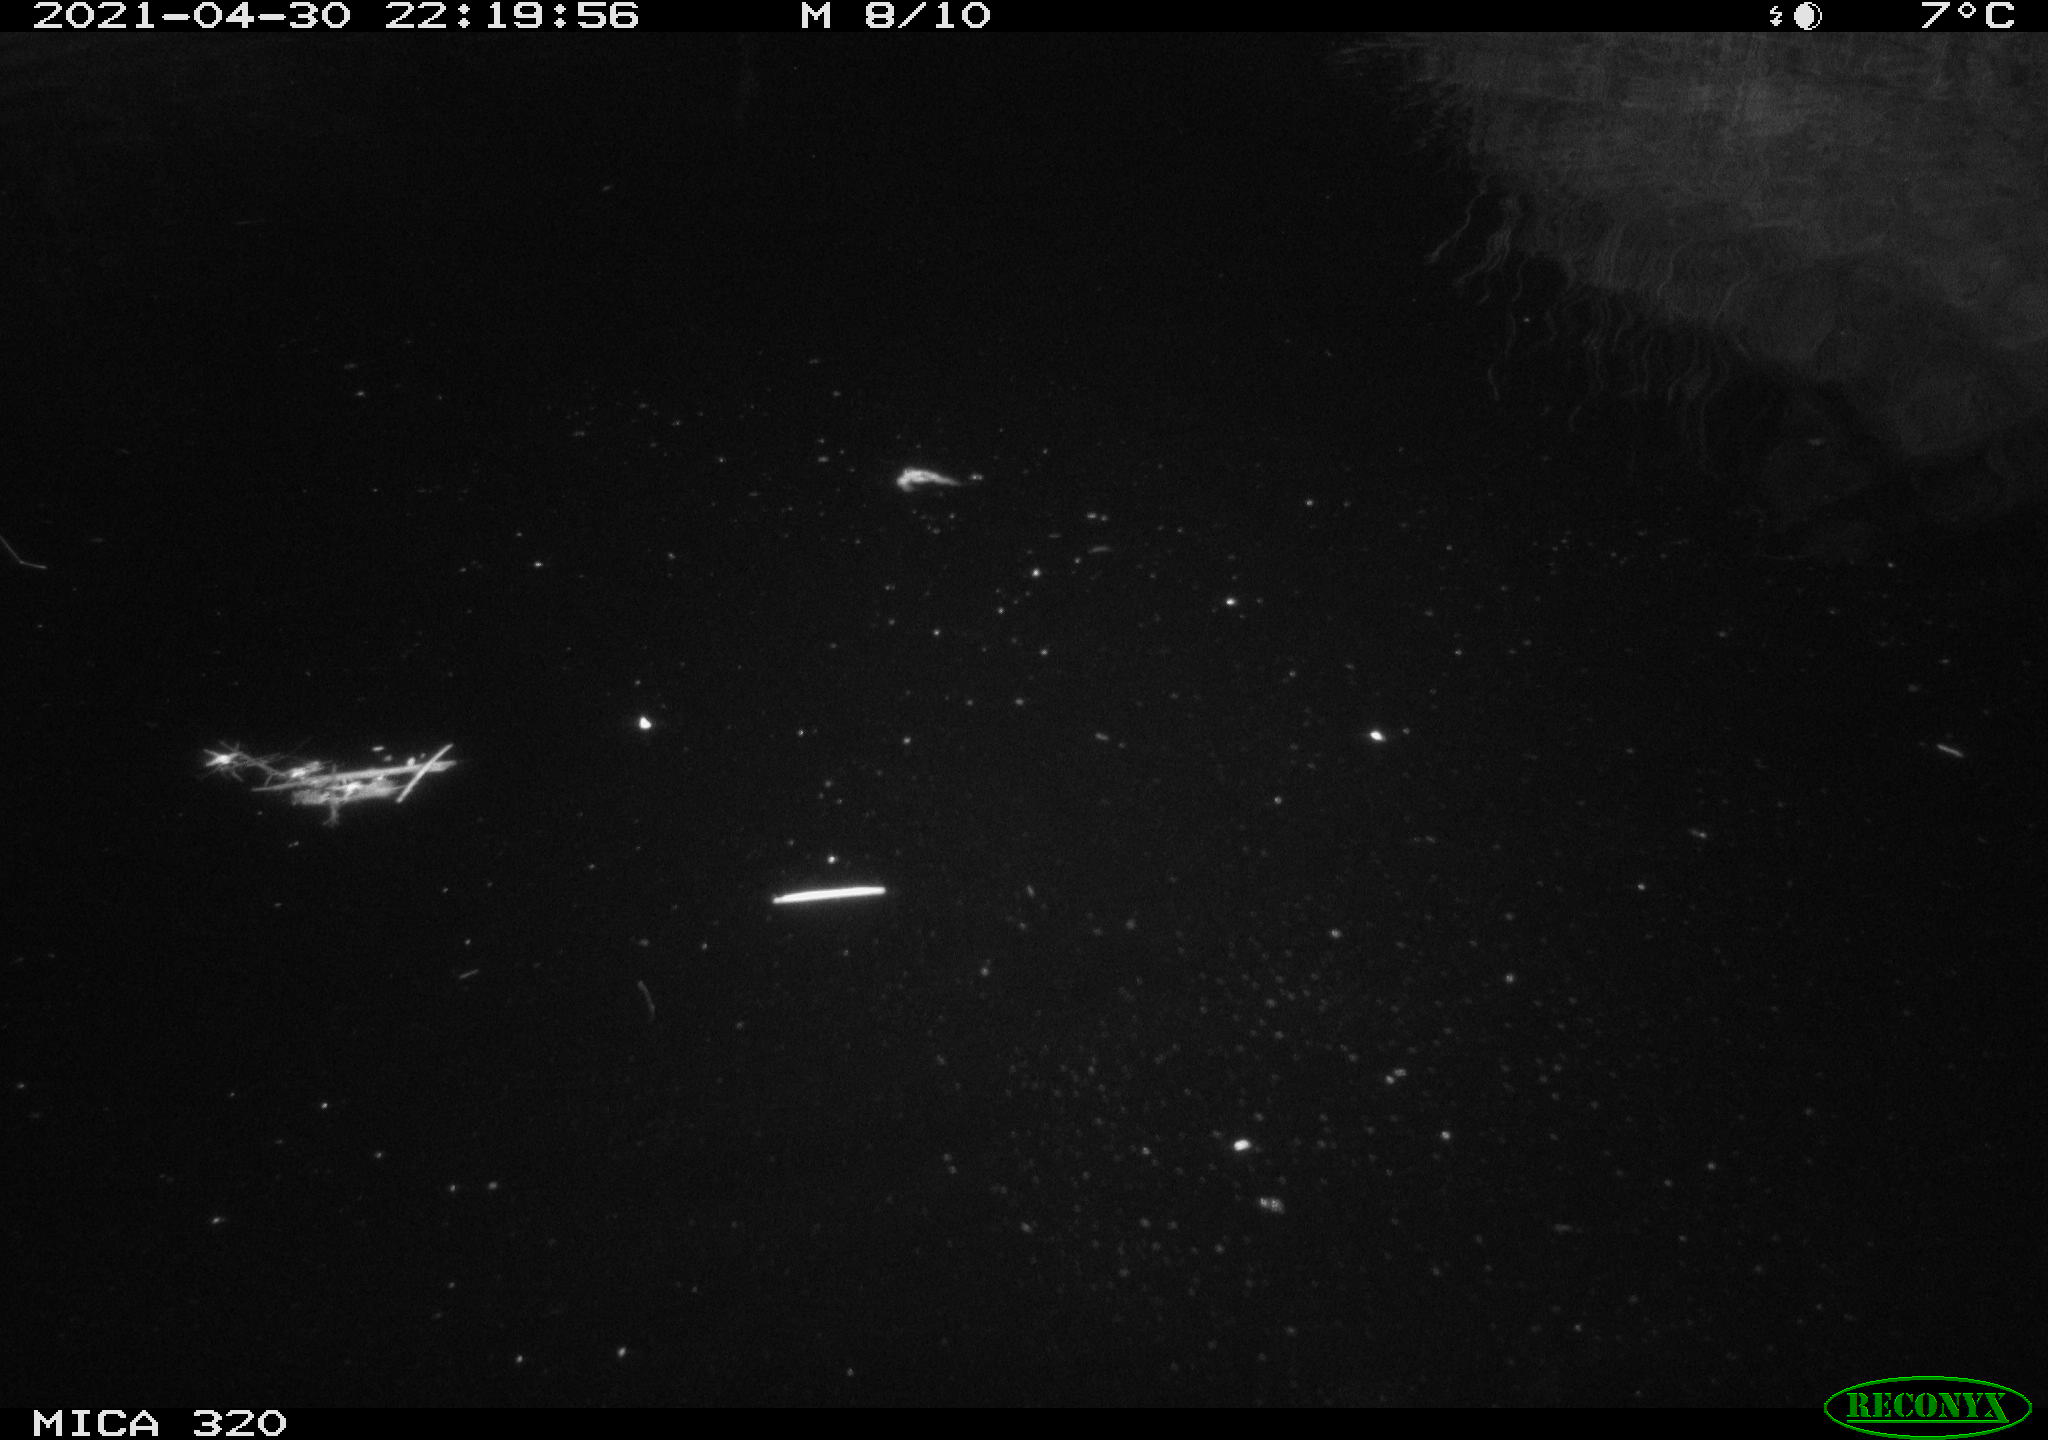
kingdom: Animalia
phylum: Chordata
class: Mammalia
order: Rodentia
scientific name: Rodentia
